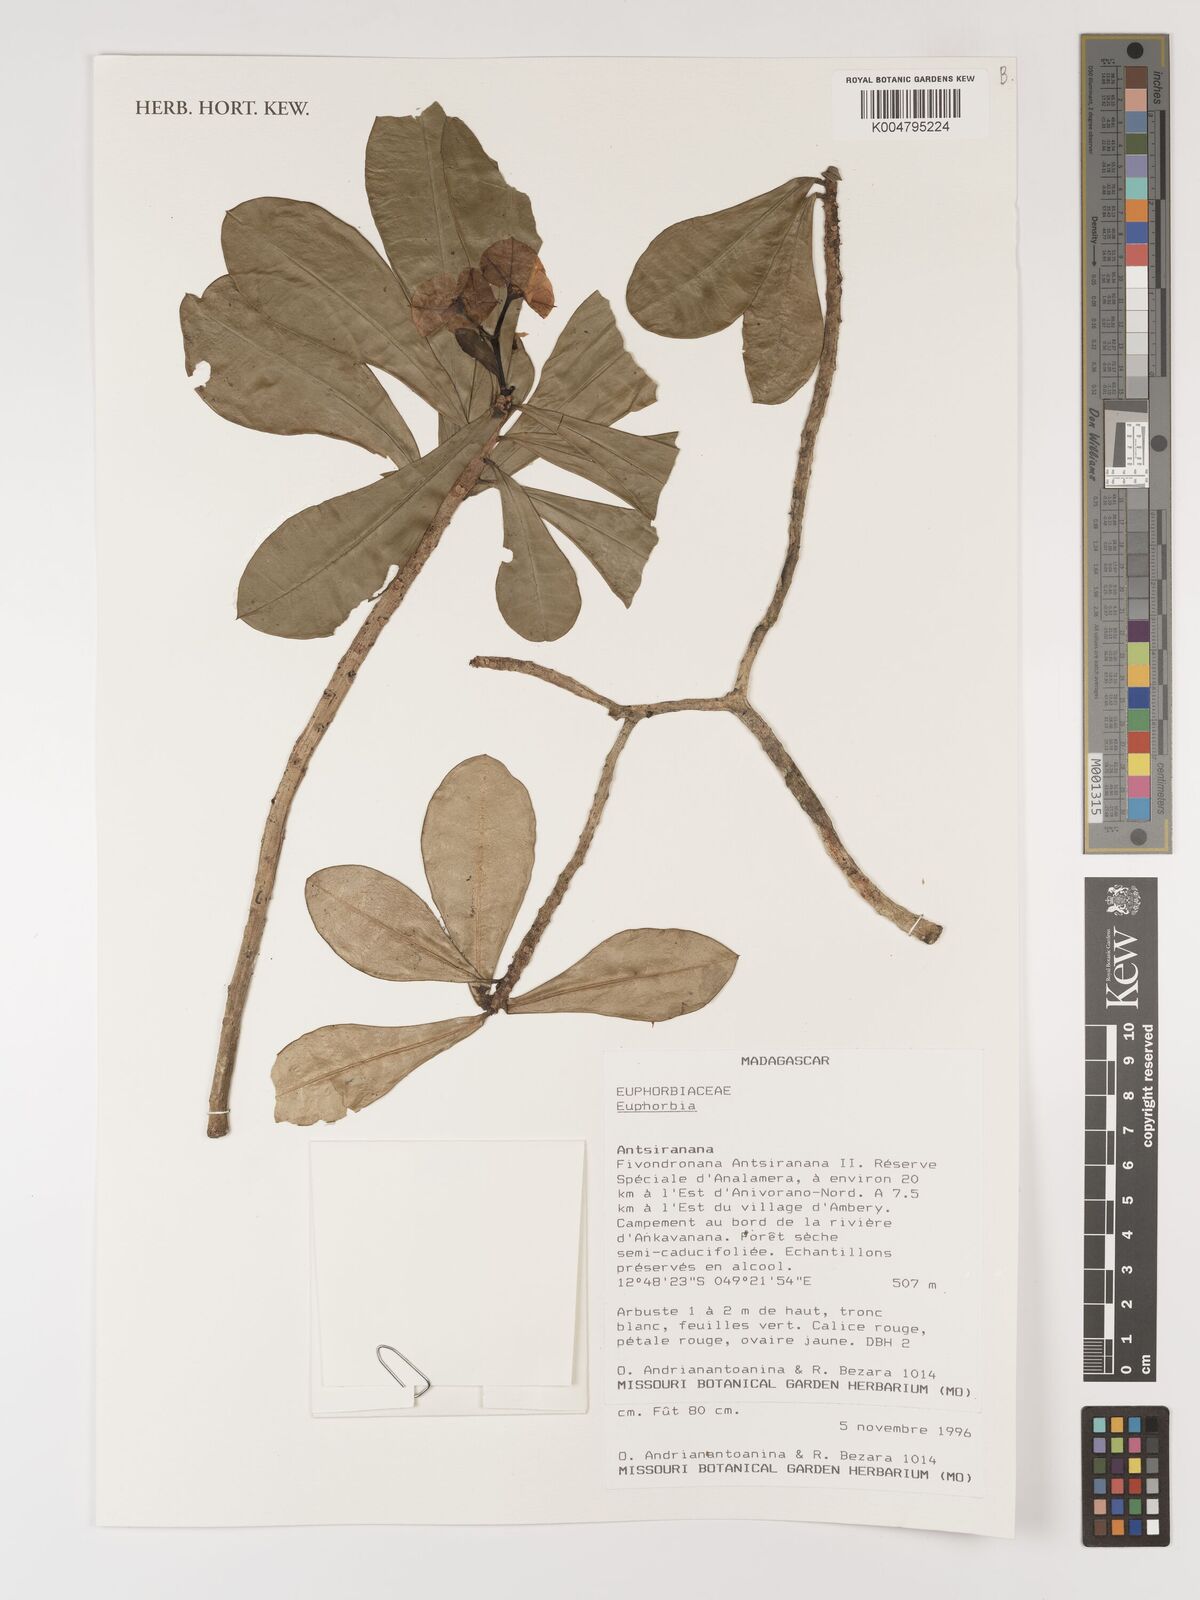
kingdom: Plantae
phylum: Tracheophyta
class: Magnoliopsida
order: Malpighiales
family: Euphorbiaceae
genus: Euphorbia
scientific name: Euphorbia
